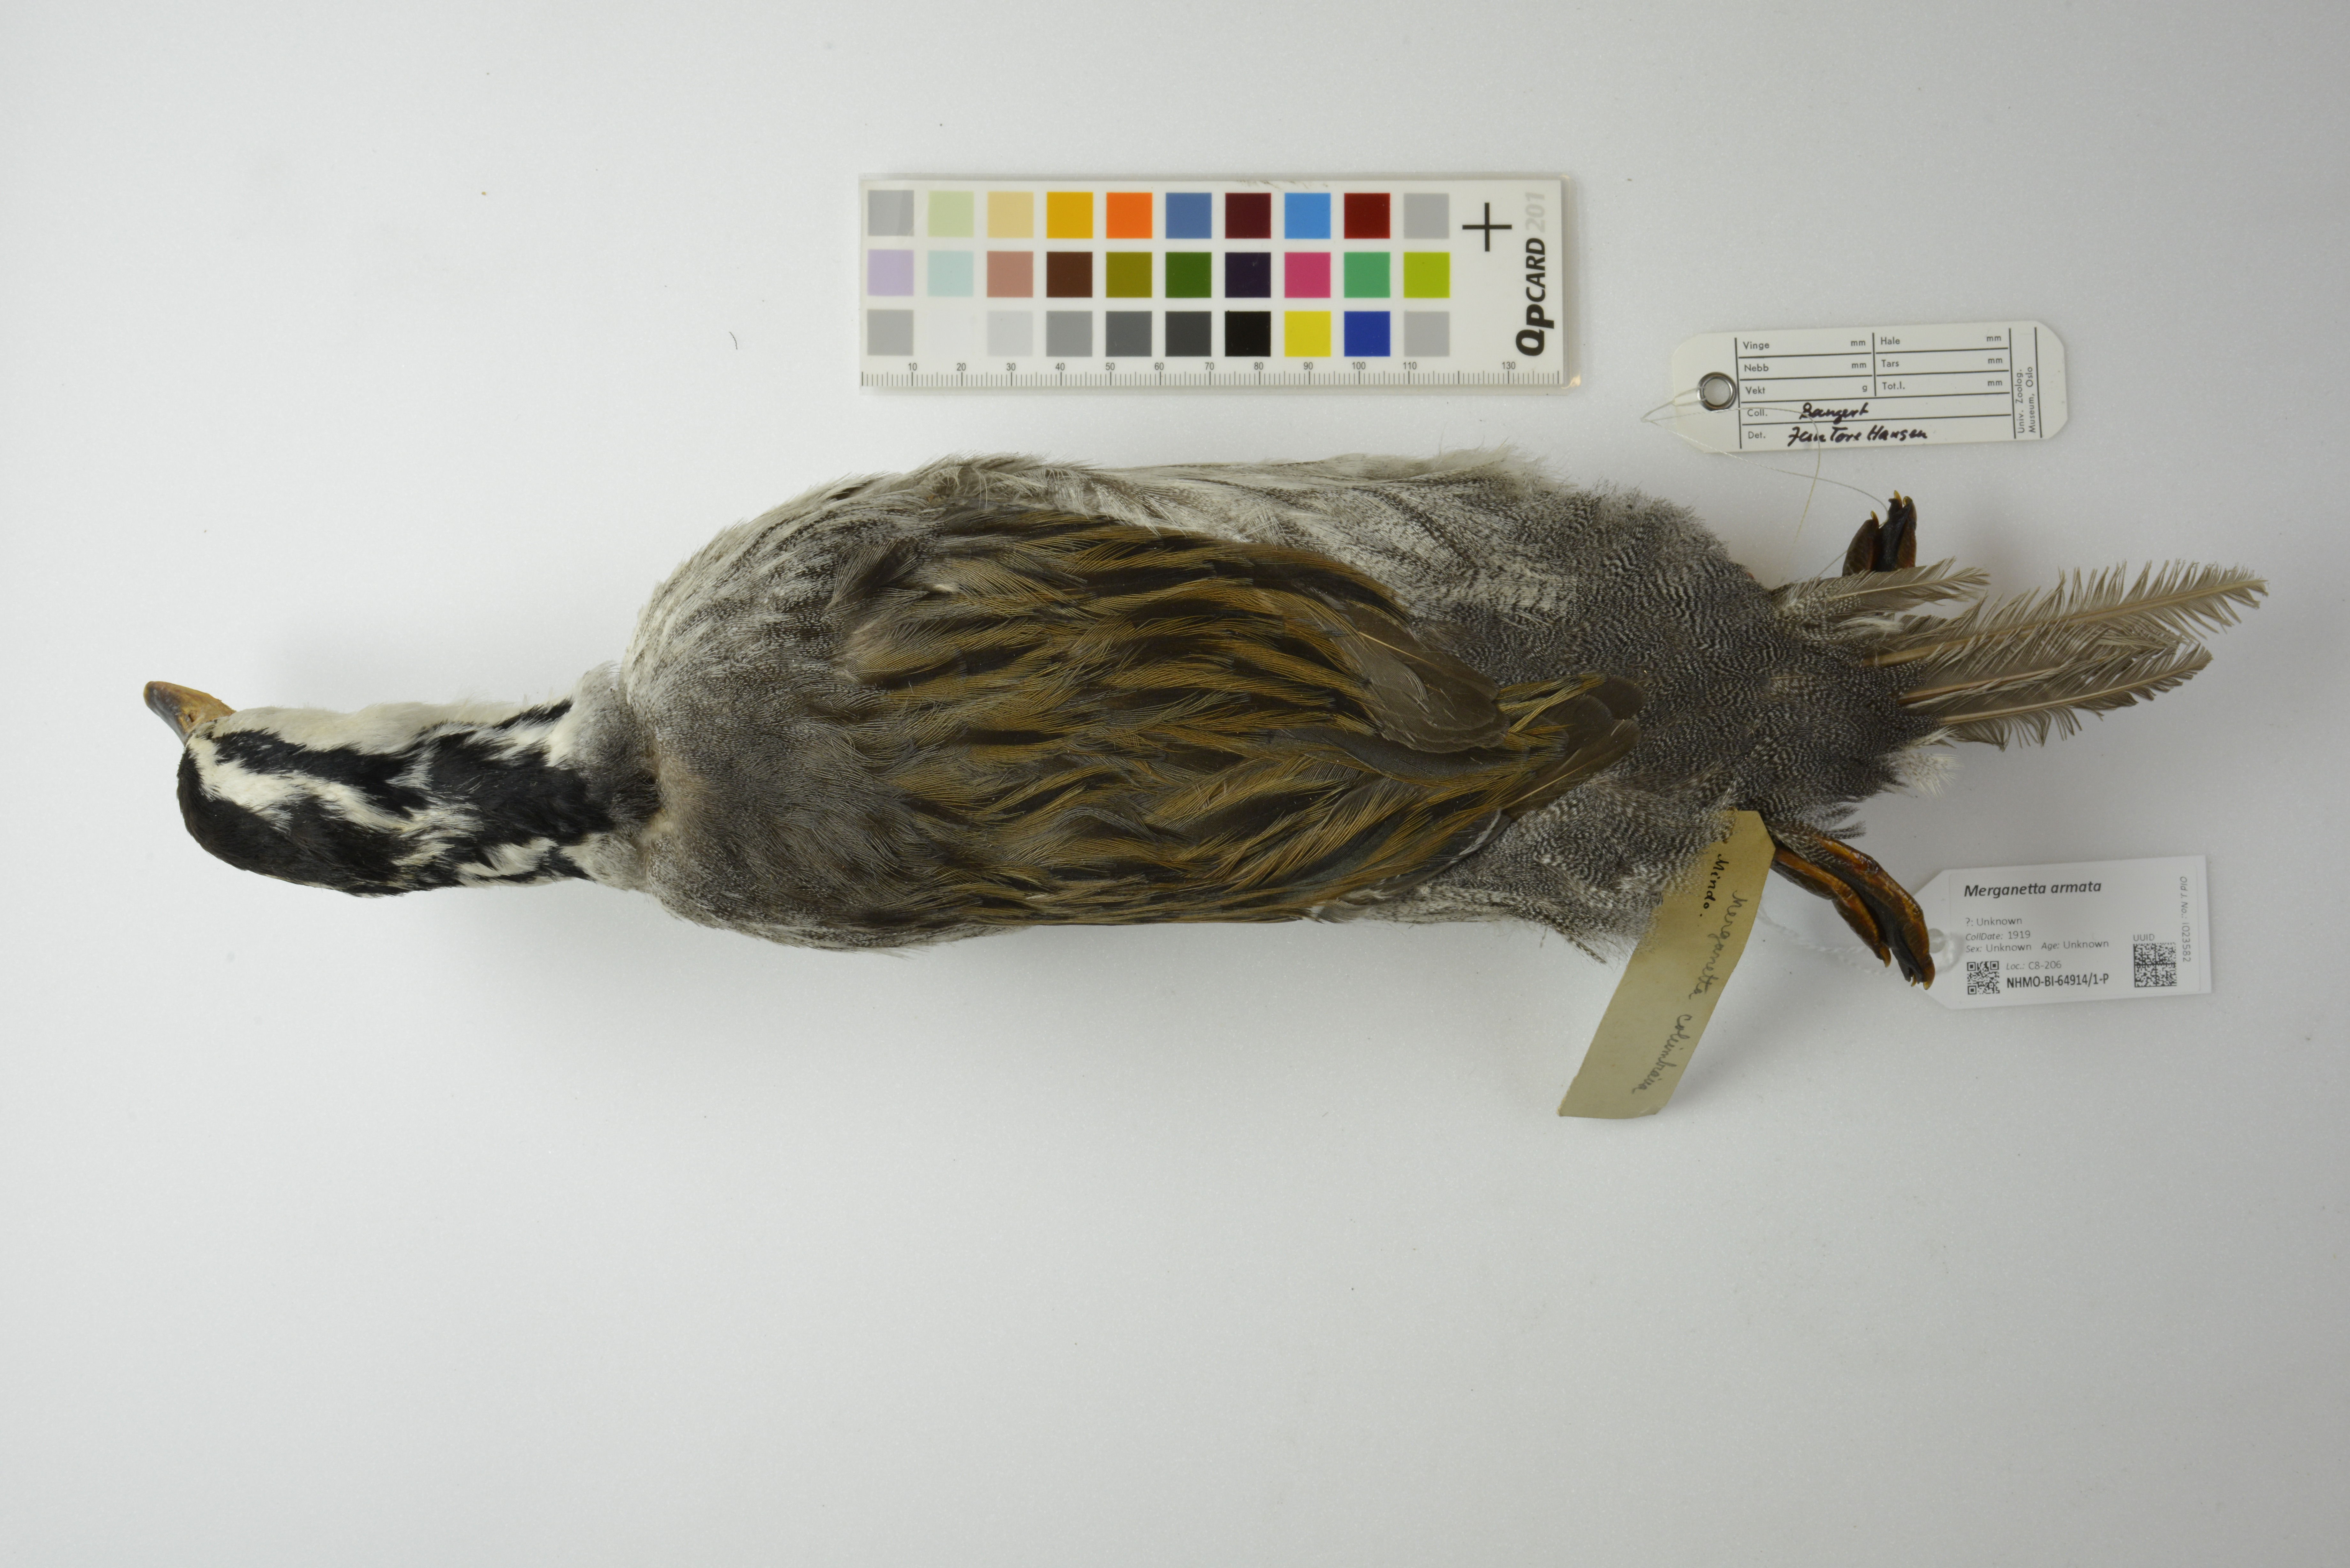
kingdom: Animalia
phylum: Chordata
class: Aves
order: Anseriformes
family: Anatidae
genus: Merganetta
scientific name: Merganetta armata
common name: Torrent duck
